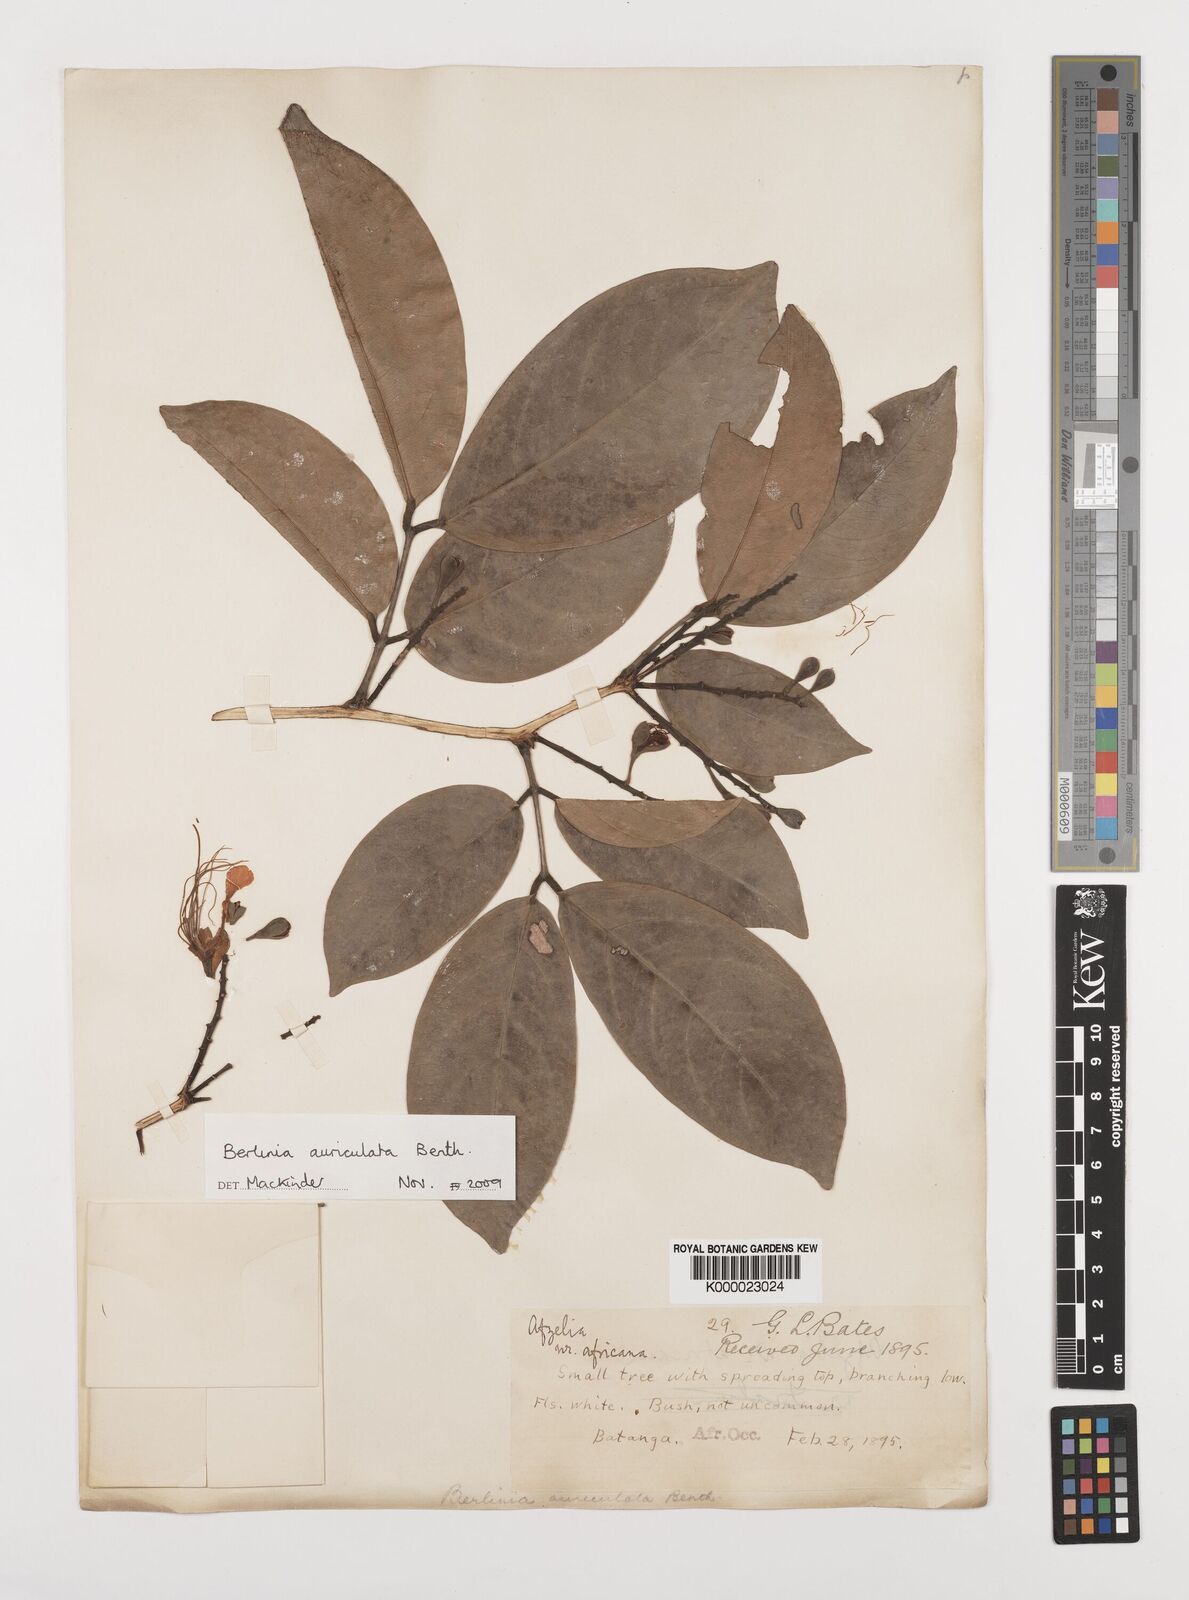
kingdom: Plantae
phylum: Tracheophyta
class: Magnoliopsida
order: Fabales
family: Fabaceae
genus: Berlinia
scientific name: Berlinia auriculata
